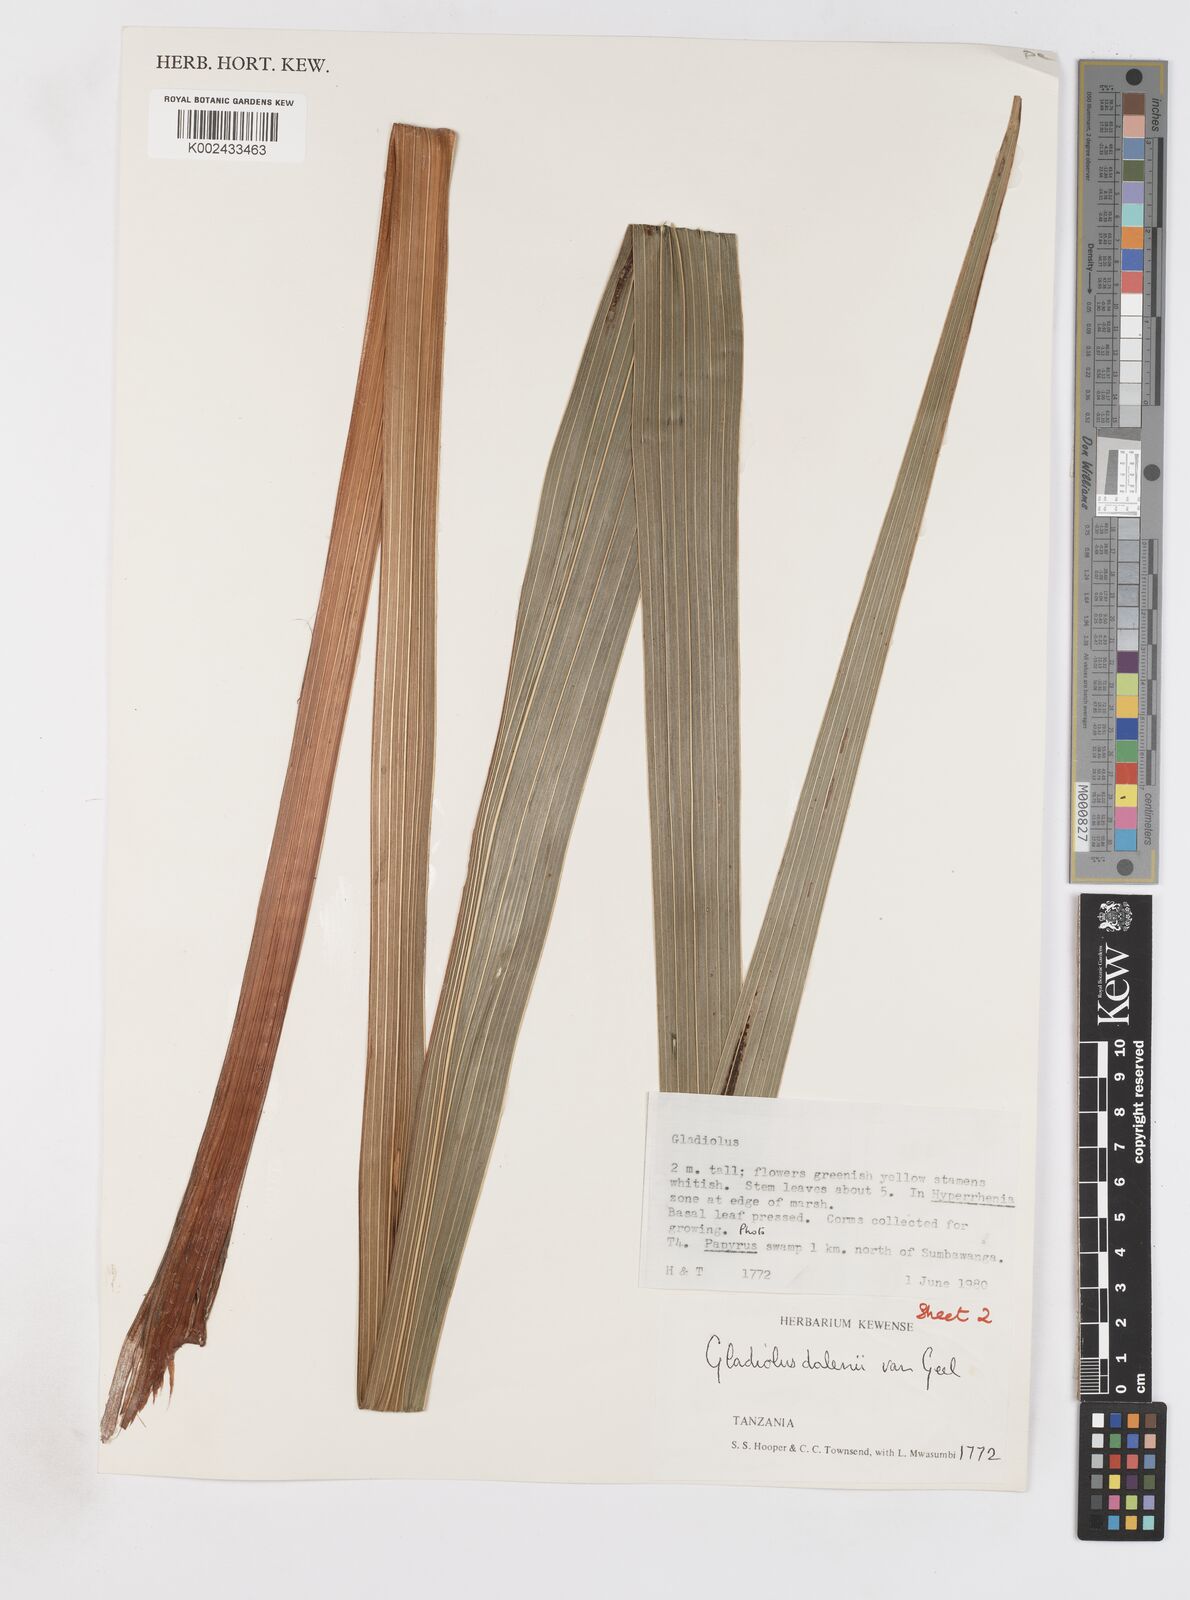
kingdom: Plantae
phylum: Tracheophyta
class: Liliopsida
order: Asparagales
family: Iridaceae
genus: Gladiolus
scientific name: Gladiolus dalenii
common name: Cornflag
